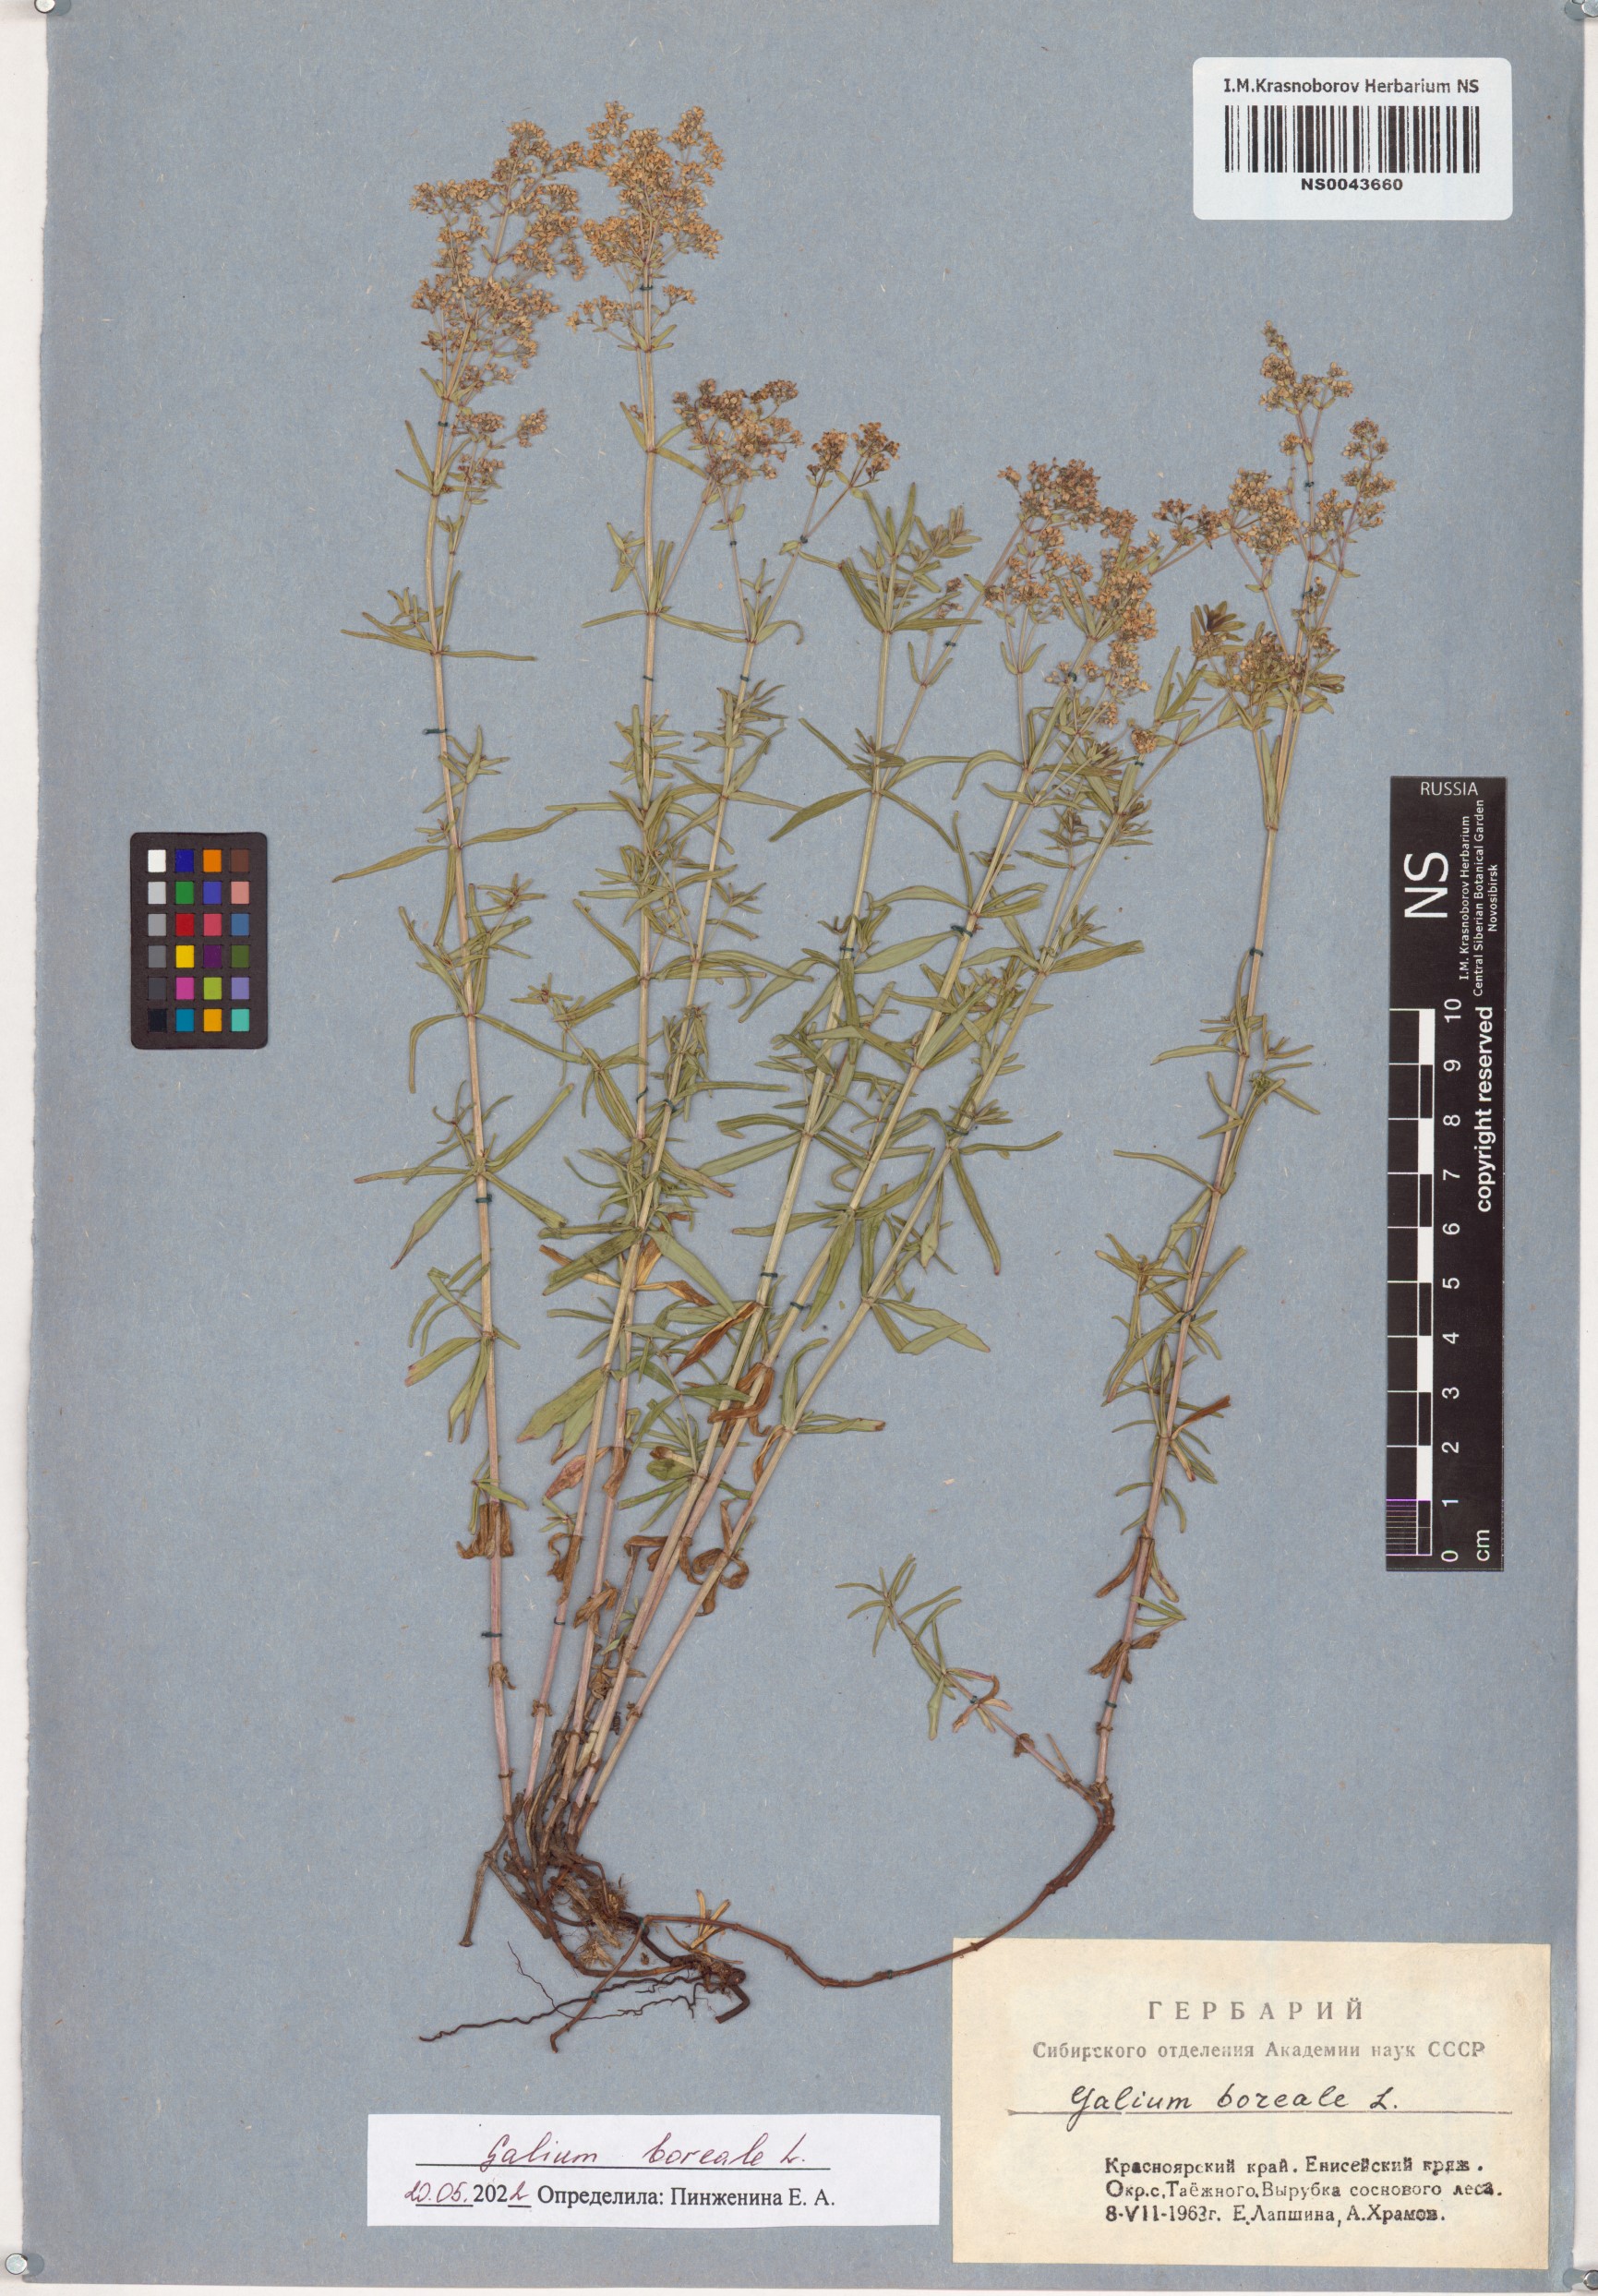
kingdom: Plantae
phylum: Tracheophyta
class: Magnoliopsida
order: Gentianales
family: Rubiaceae
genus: Galium
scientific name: Galium boreale
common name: Northern bedstraw
